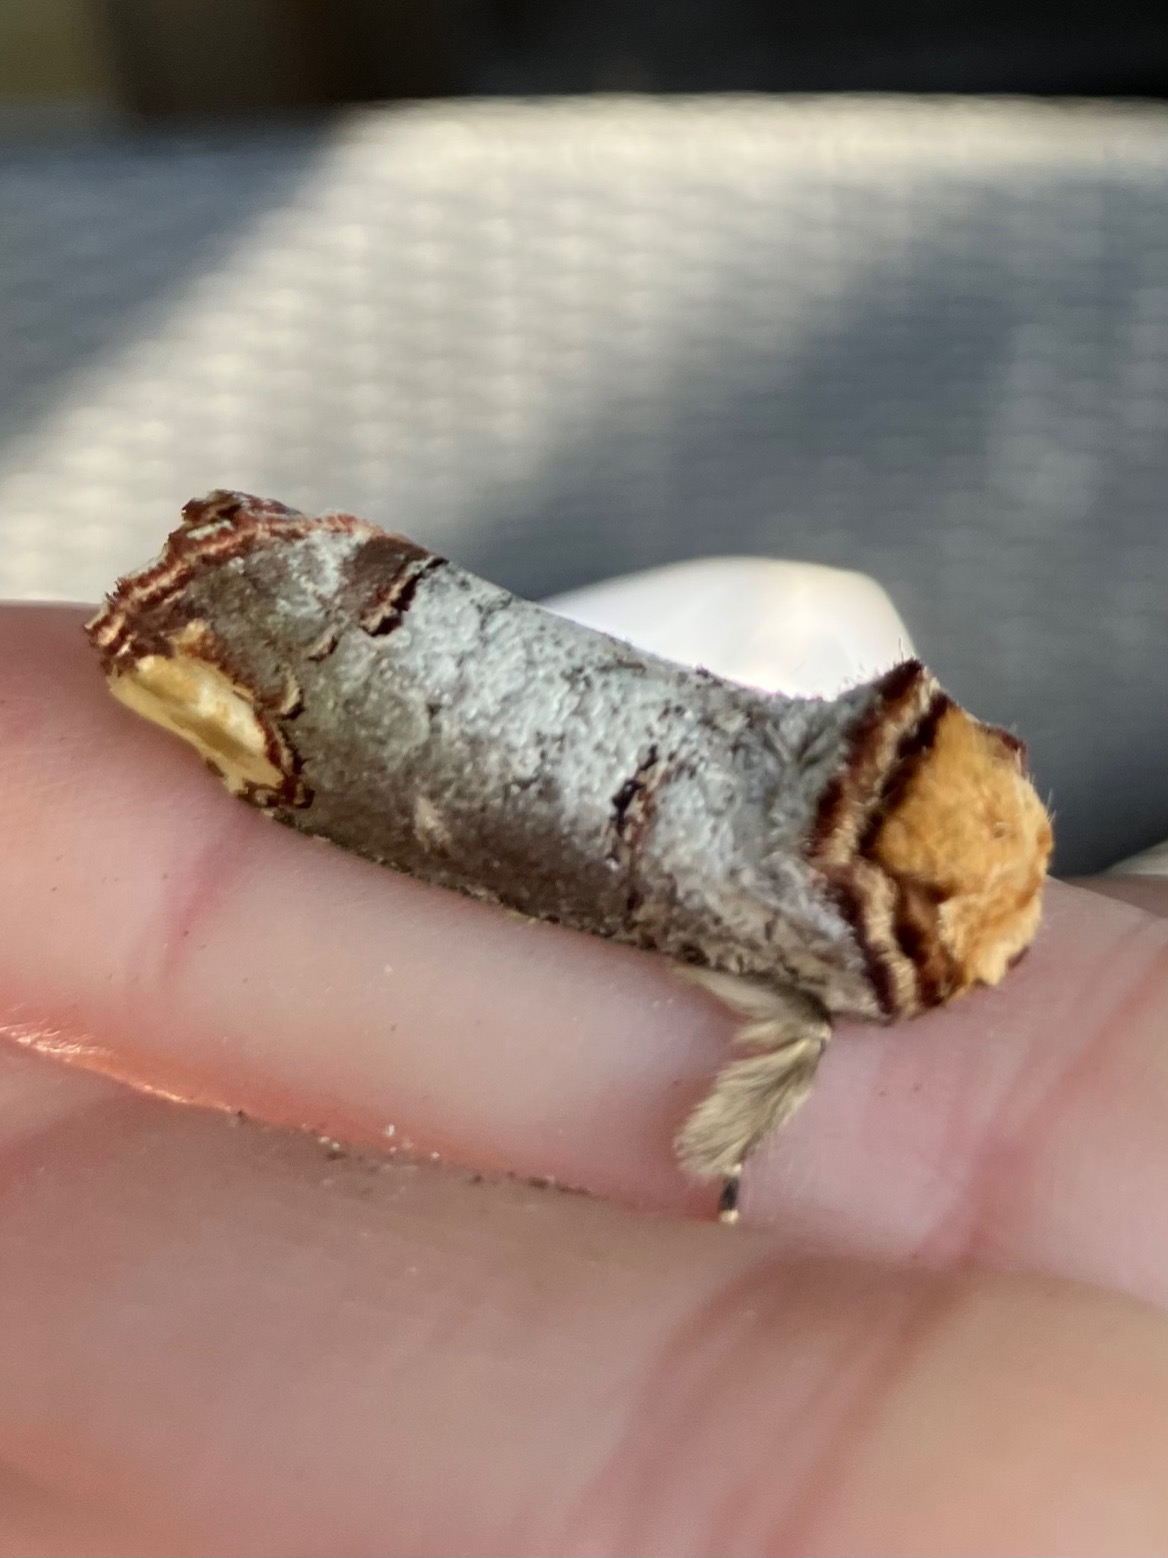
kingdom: Animalia
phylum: Arthropoda
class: Insecta
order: Lepidoptera
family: Notodontidae
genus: Phalera
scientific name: Phalera bucephala
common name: Måneplet
